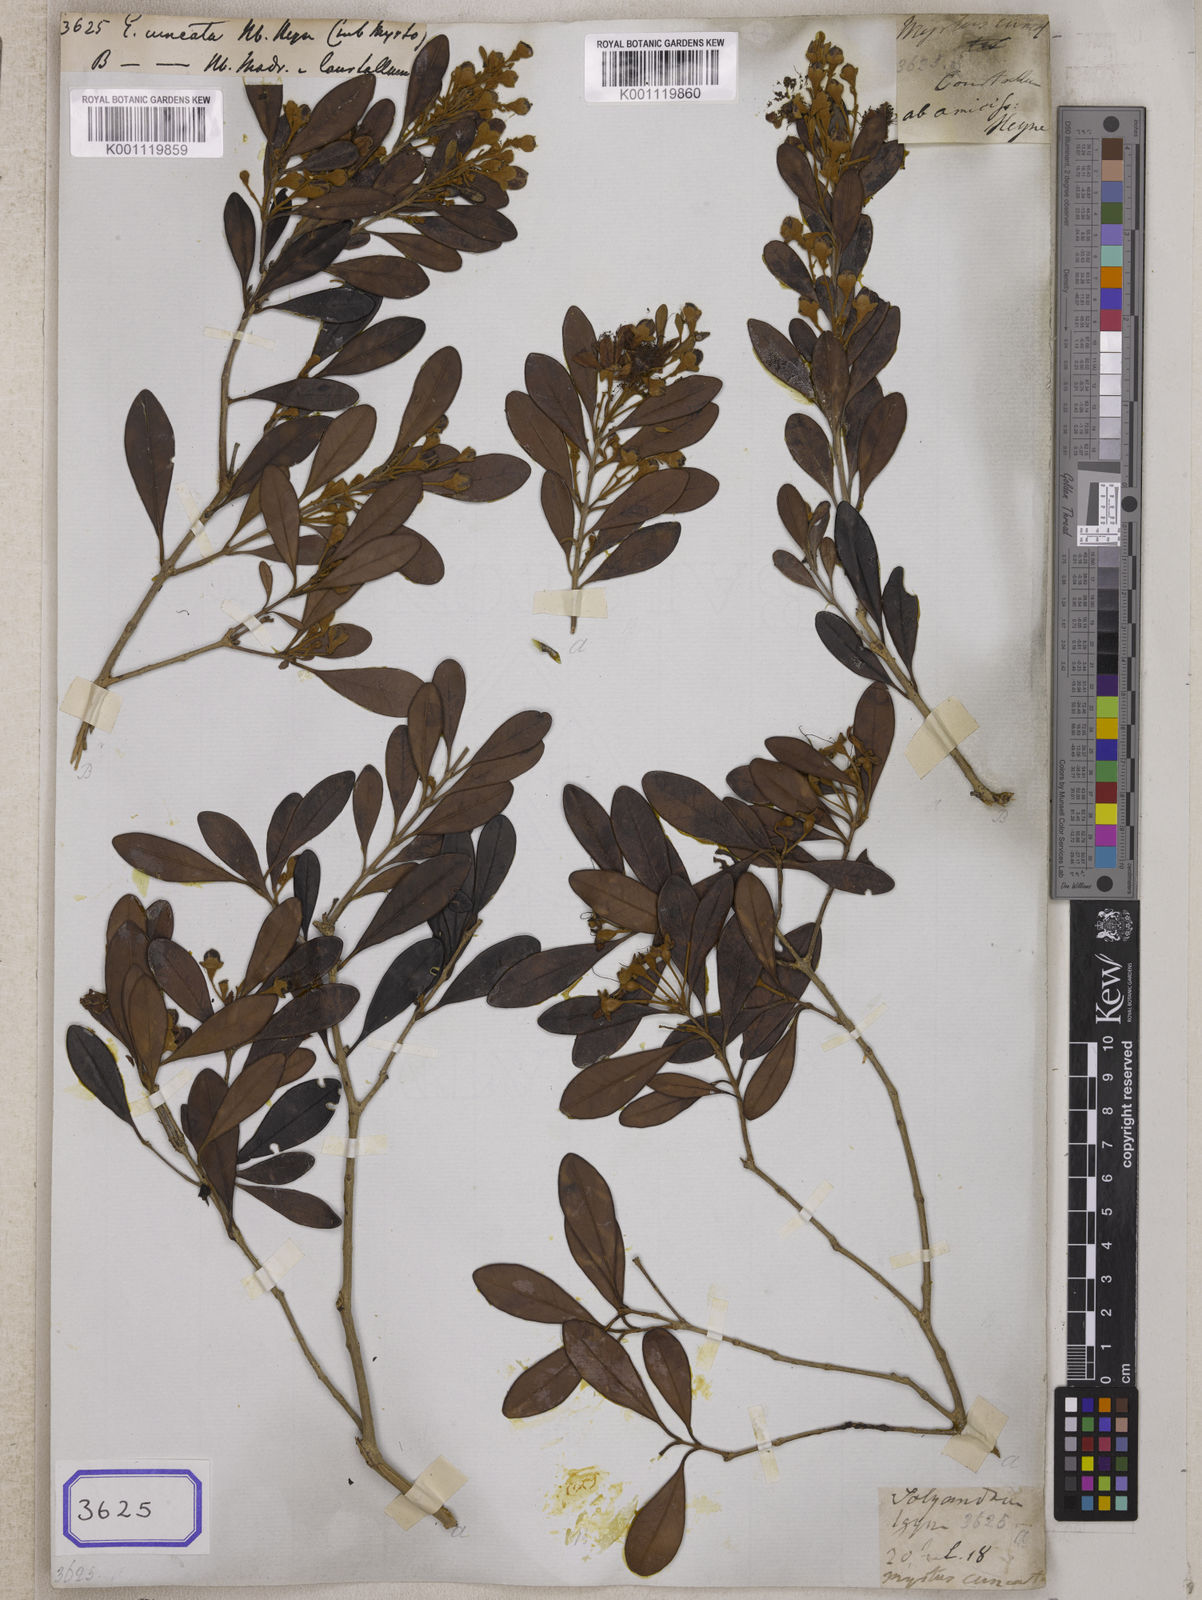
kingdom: Plantae
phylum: Tracheophyta
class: Magnoliopsida
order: Myrtales
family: Myrtaceae
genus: Eugenia
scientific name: Eugenia
